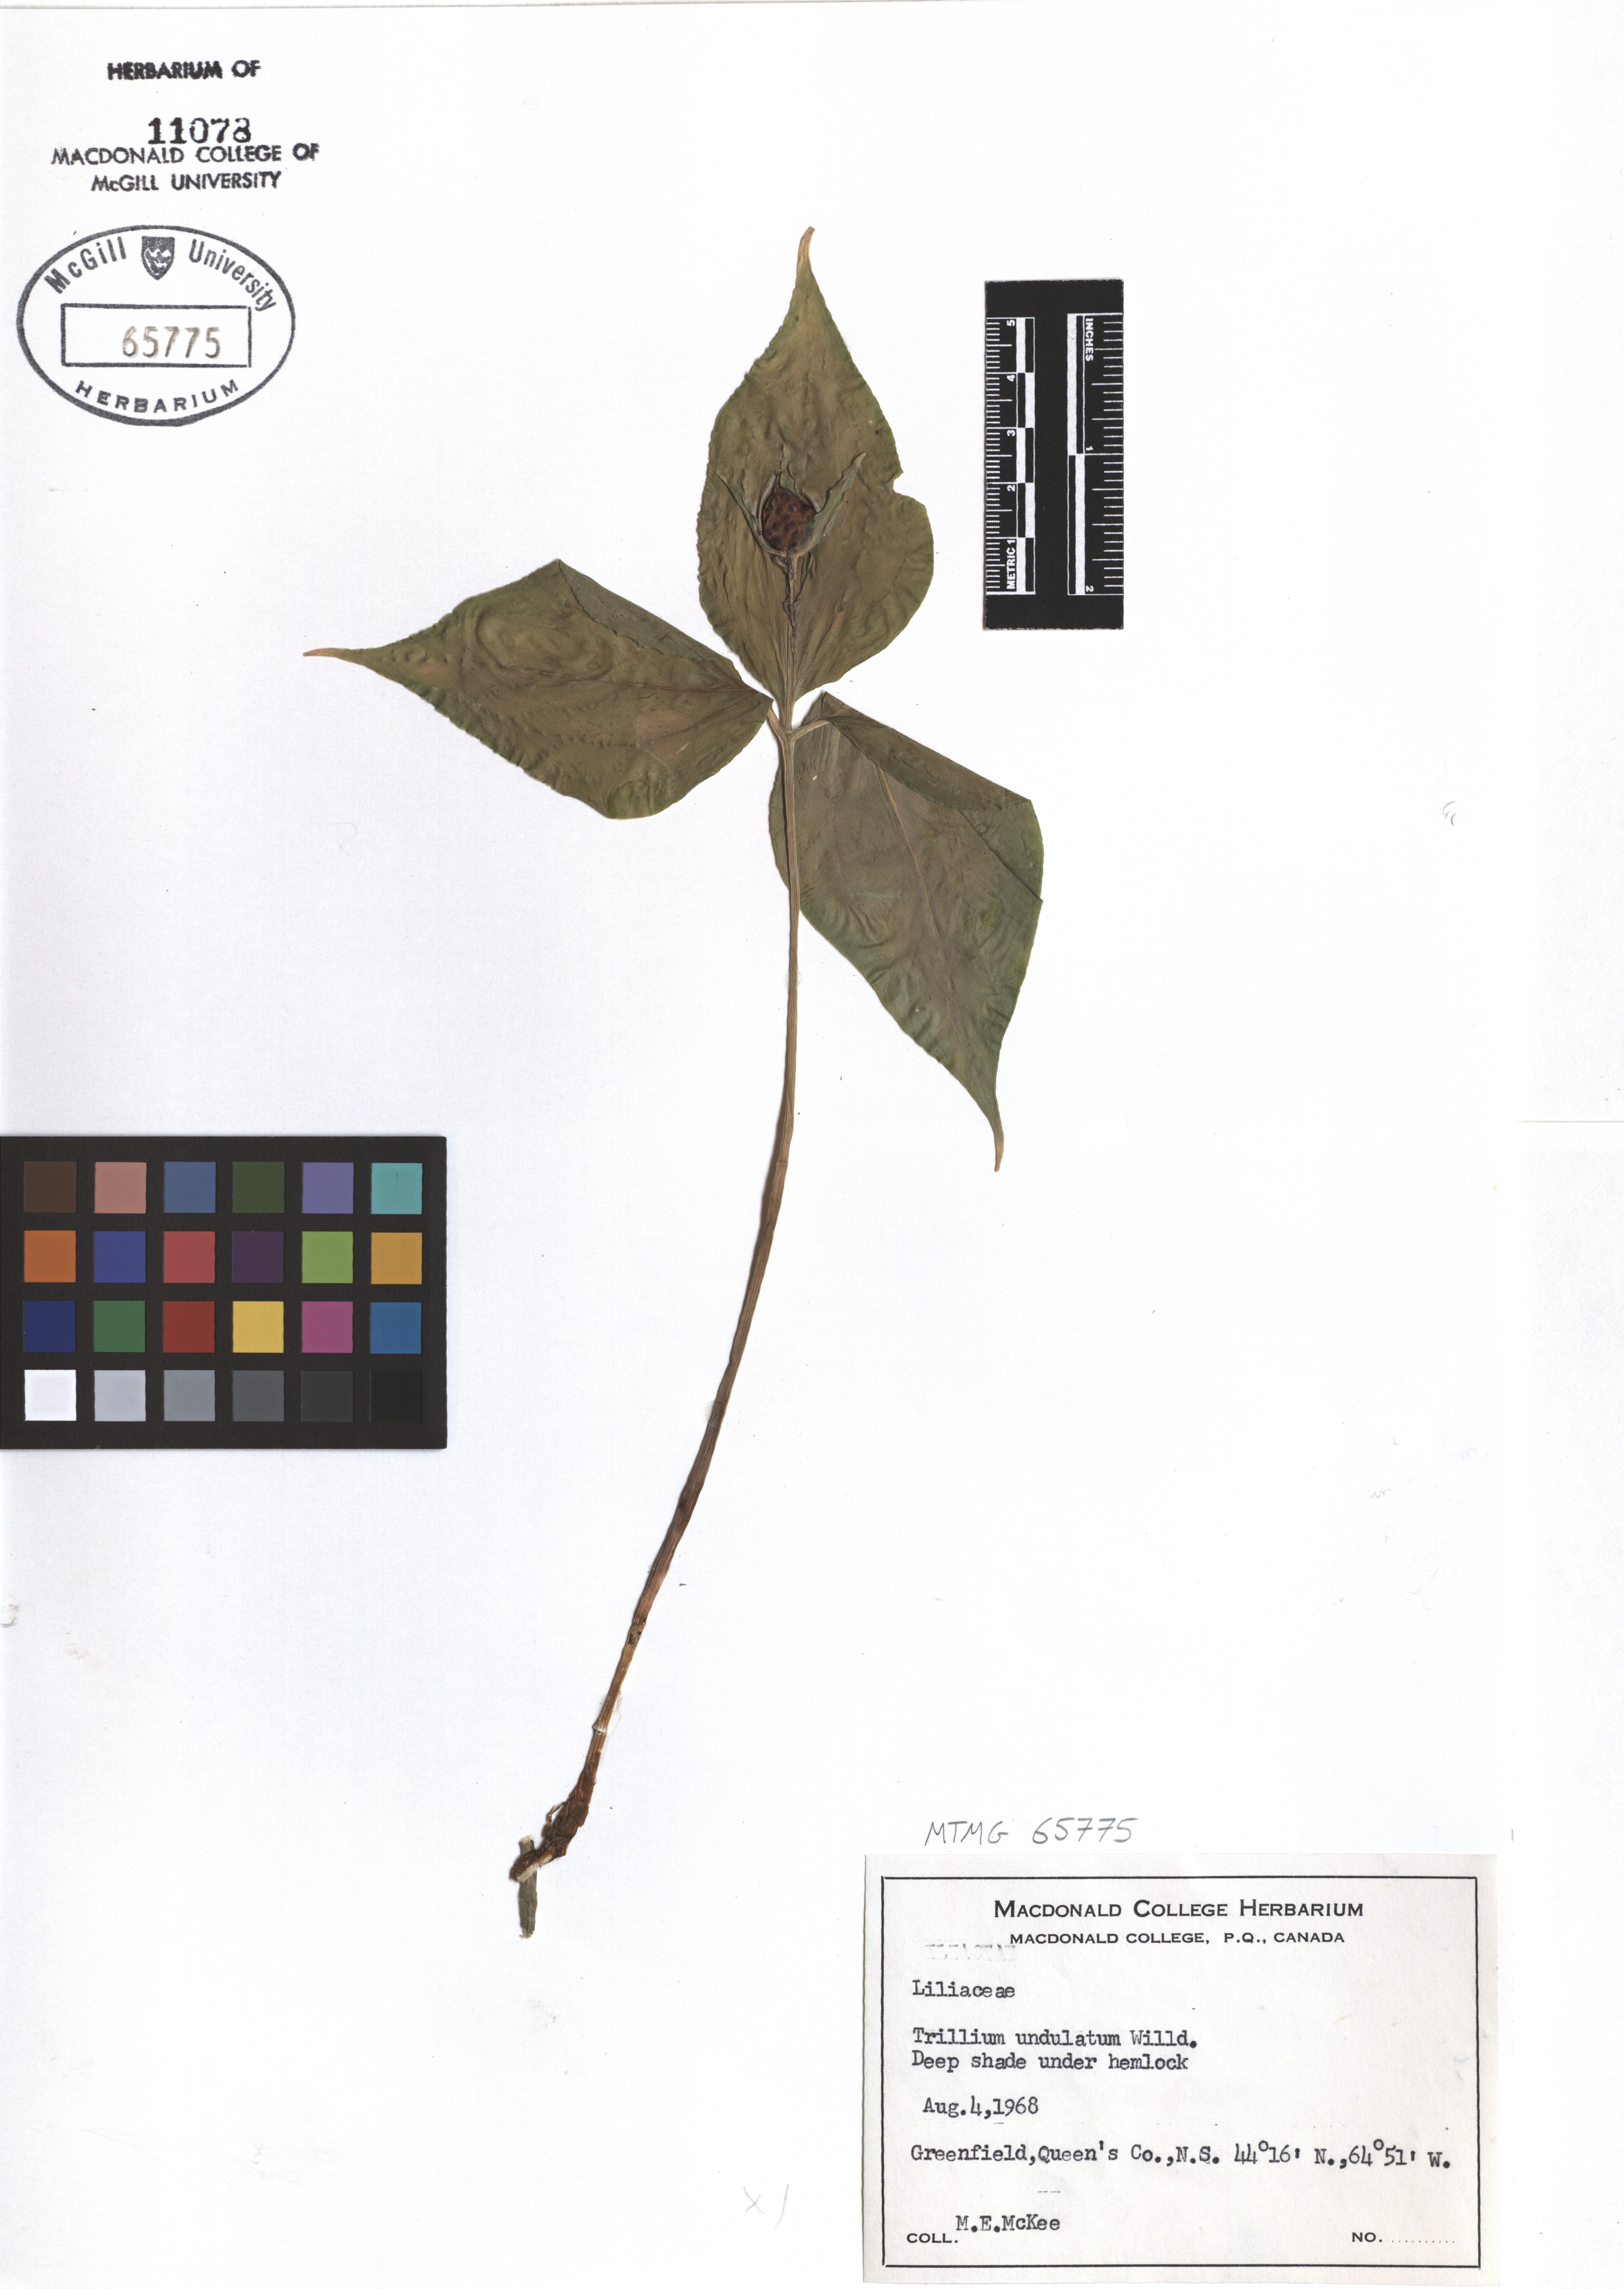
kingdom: Plantae
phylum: Tracheophyta
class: Liliopsida
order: Liliales
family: Melanthiaceae
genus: Trillium
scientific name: Trillium undulatum
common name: Paint trillium
